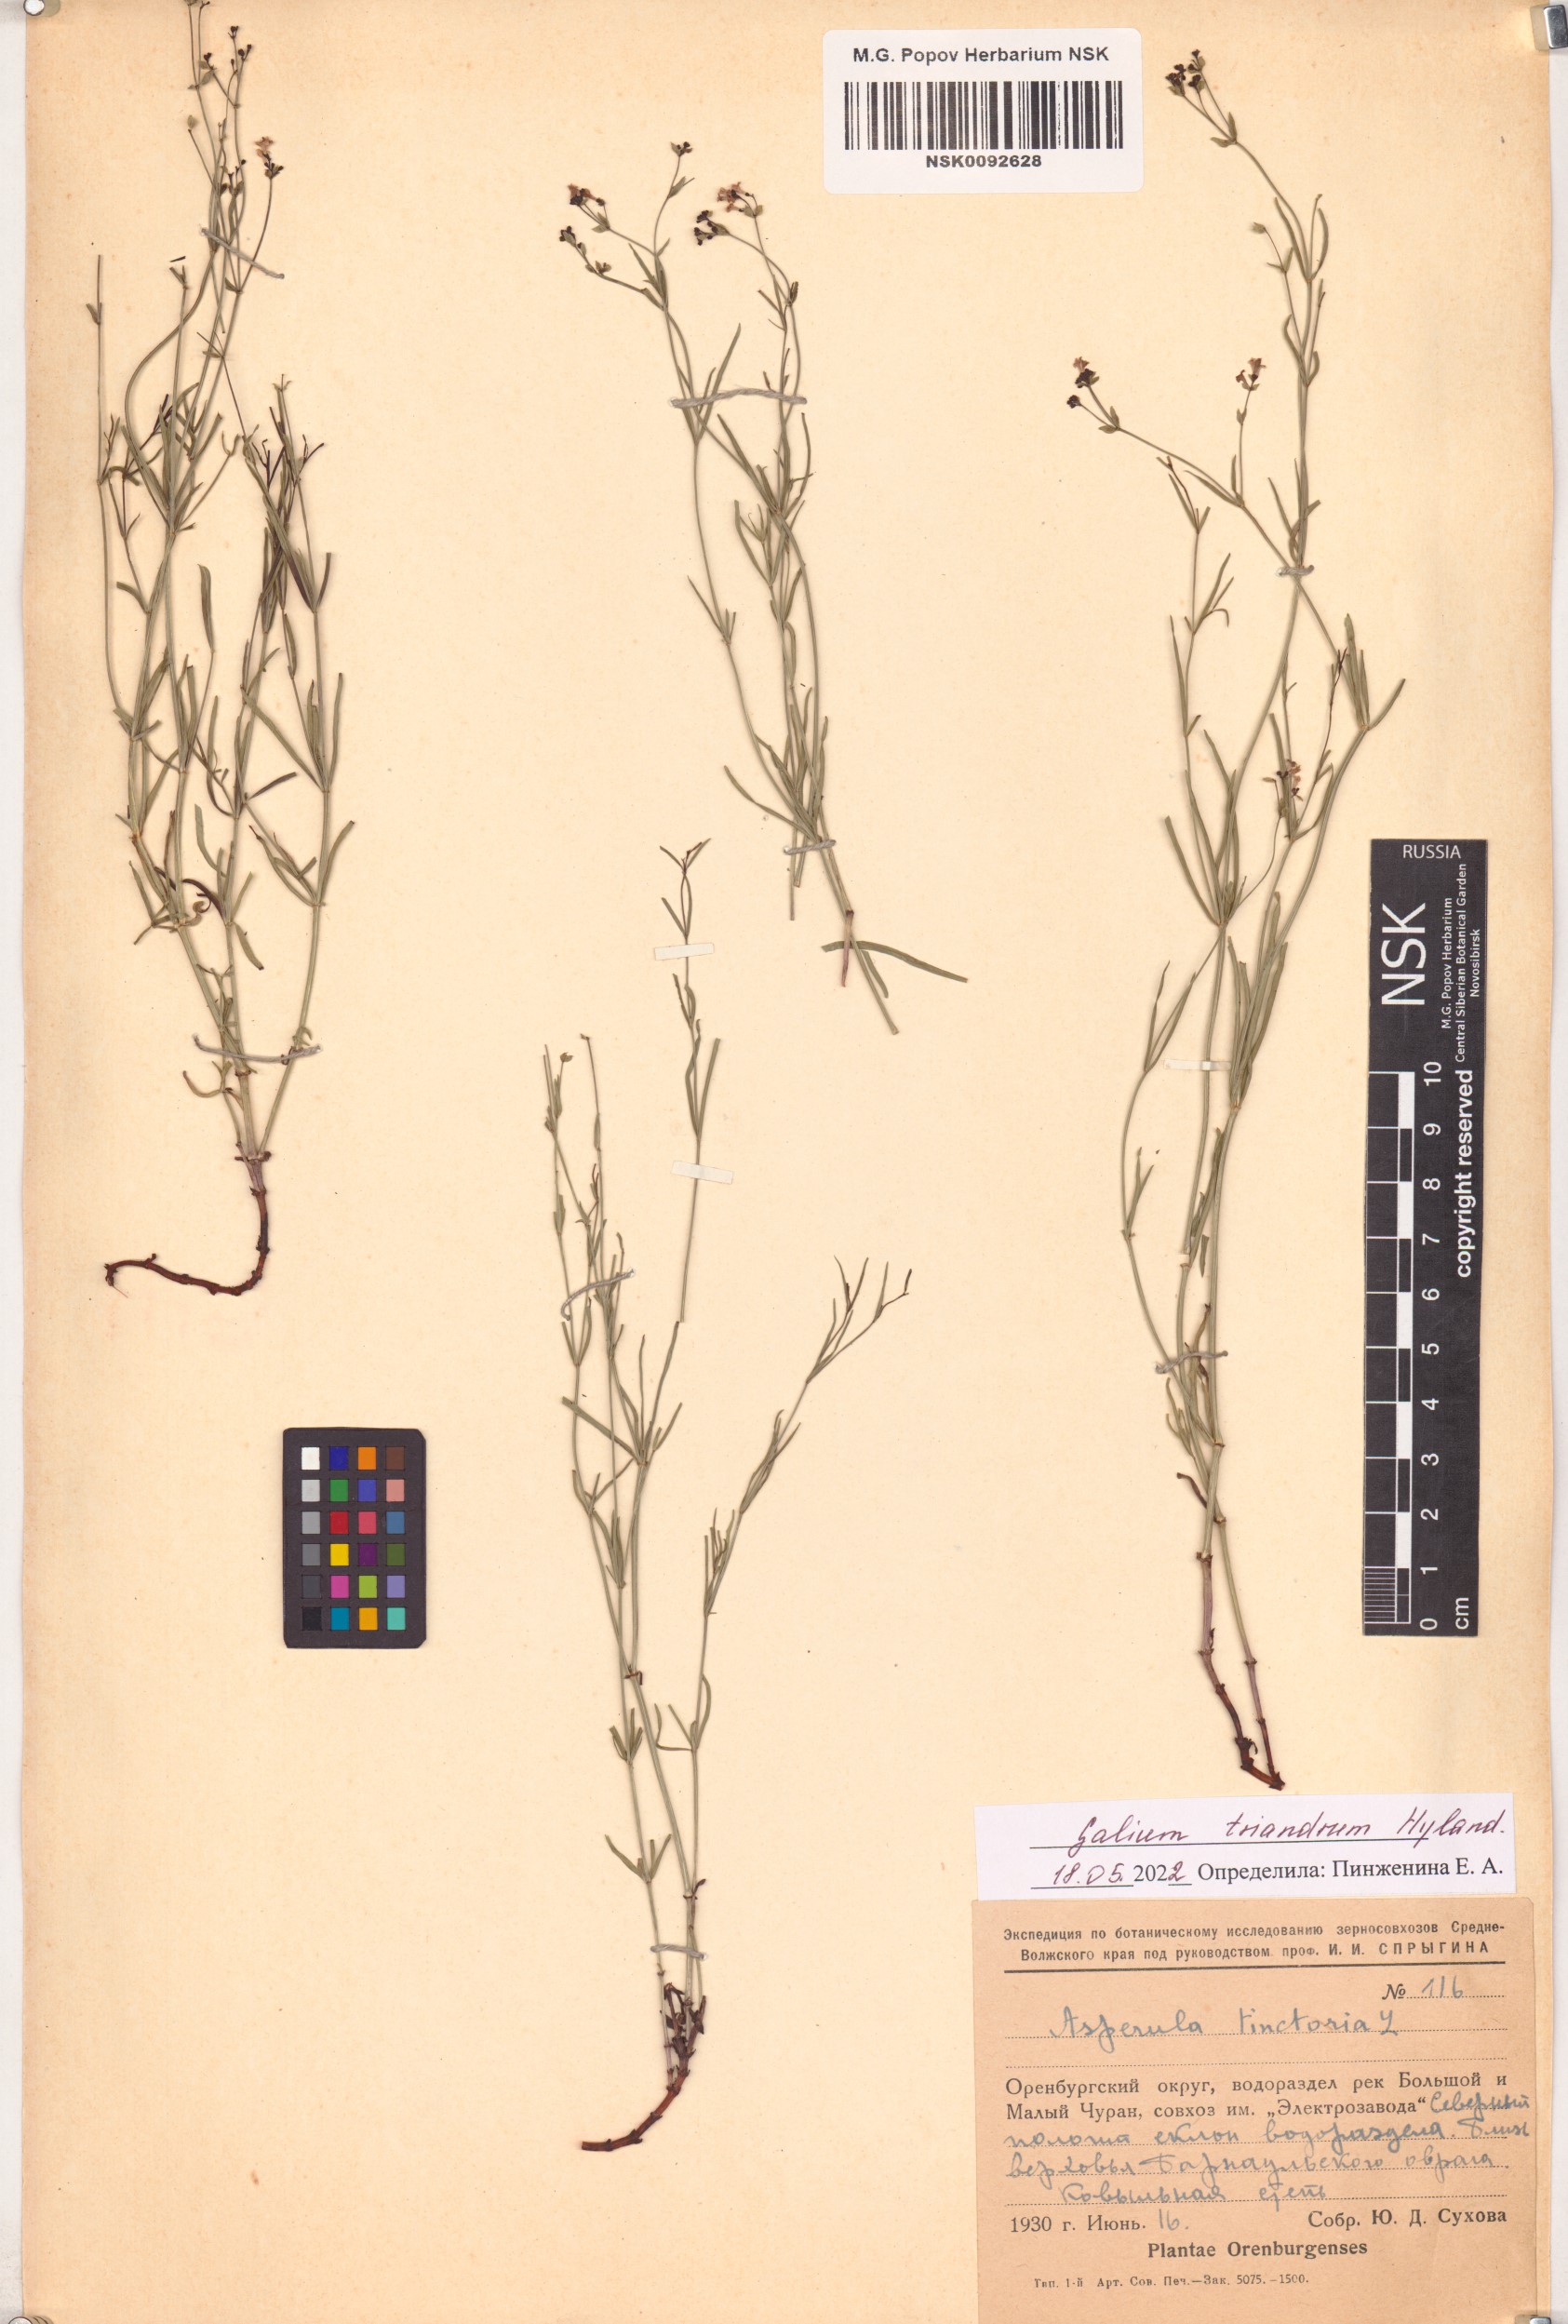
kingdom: Plantae
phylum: Tracheophyta
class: Magnoliopsida
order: Gentianales
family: Rubiaceae
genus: Asperula
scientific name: Asperula tinctoria
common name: Dyer's woodruff
